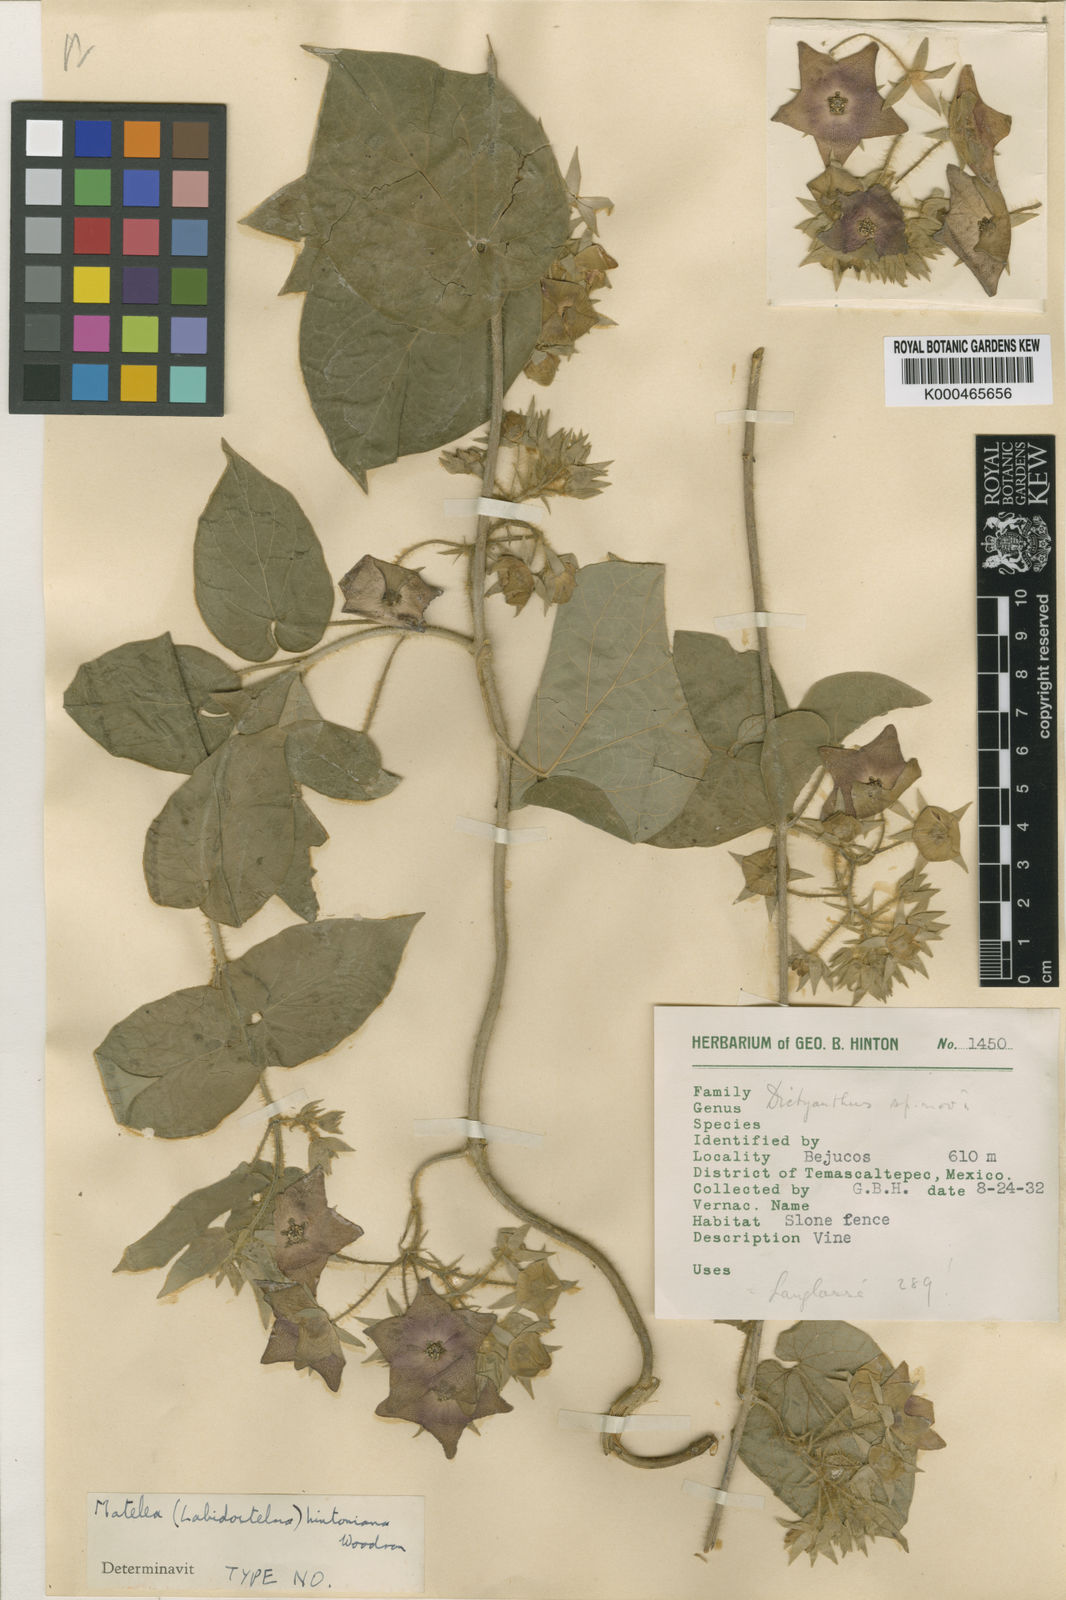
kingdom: Plantae
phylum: Tracheophyta
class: Magnoliopsida
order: Gentianales
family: Apocynaceae
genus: Polystemma
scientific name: Polystemma guatemalense
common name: Arborescente rattan
